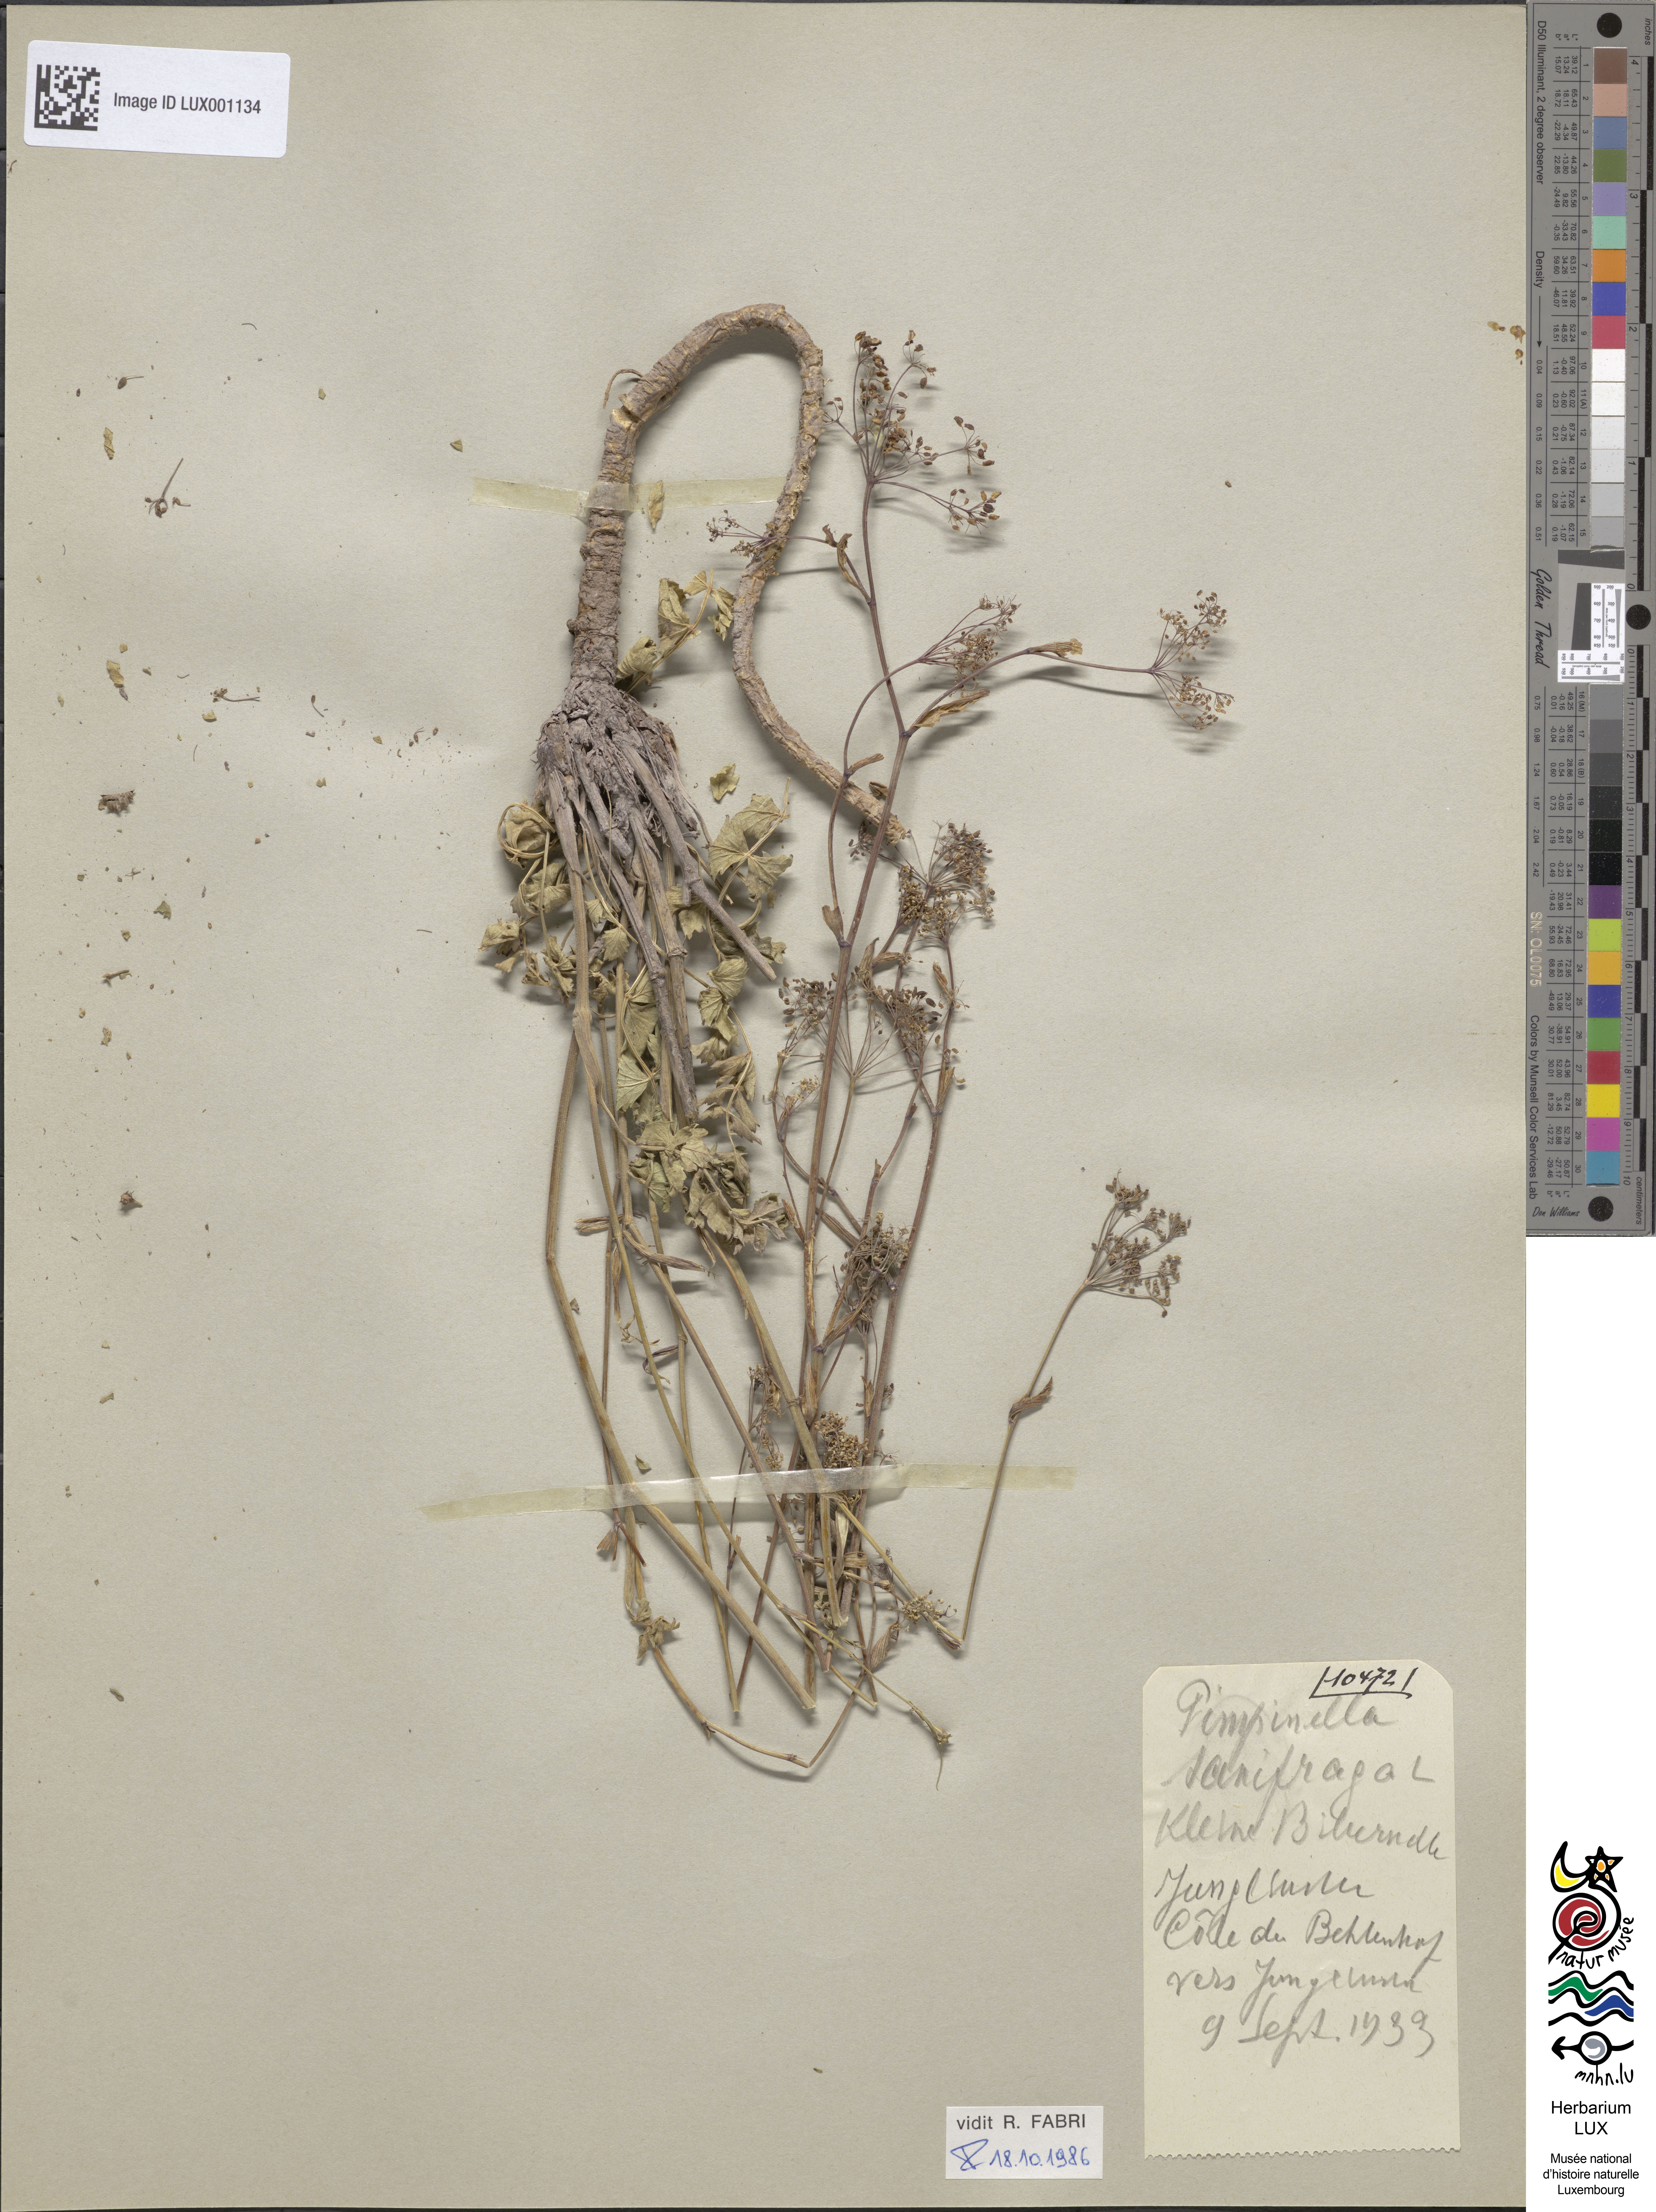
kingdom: Plantae
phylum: Tracheophyta
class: Magnoliopsida
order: Apiales
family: Apiaceae
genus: Pimpinella
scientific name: Pimpinella saxifraga
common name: Burnet-saxifrage
